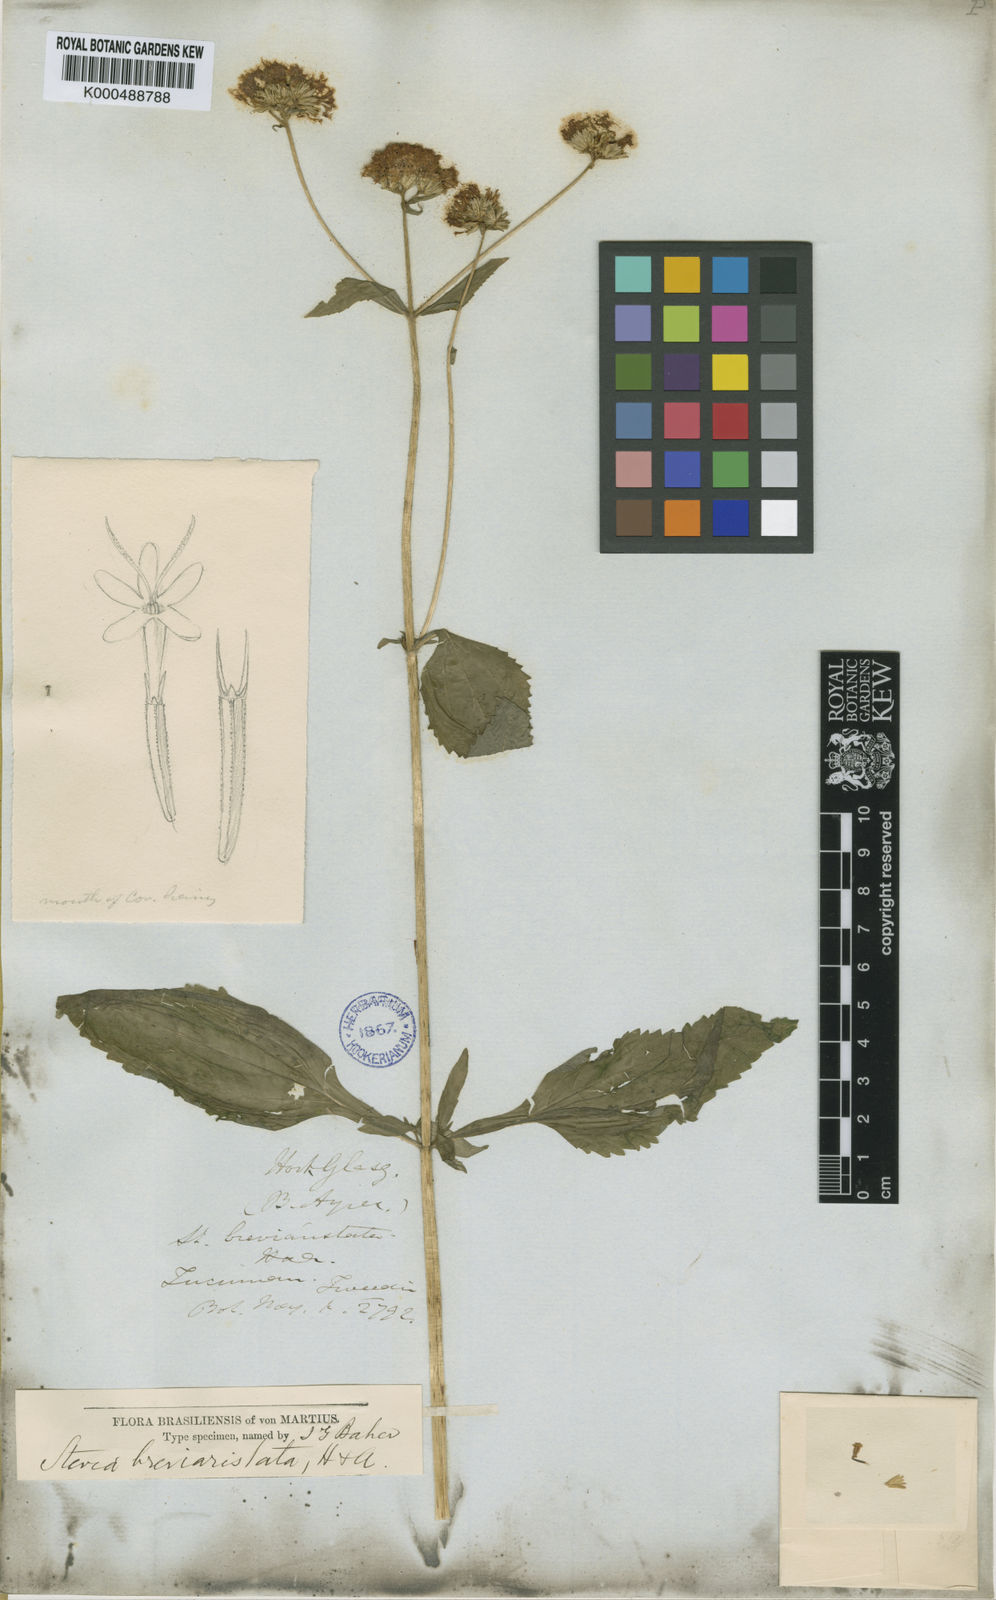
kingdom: Plantae
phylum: Tracheophyta
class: Magnoliopsida
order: Asterales
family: Asteraceae
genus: Stevia
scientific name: Stevia breviaristata
